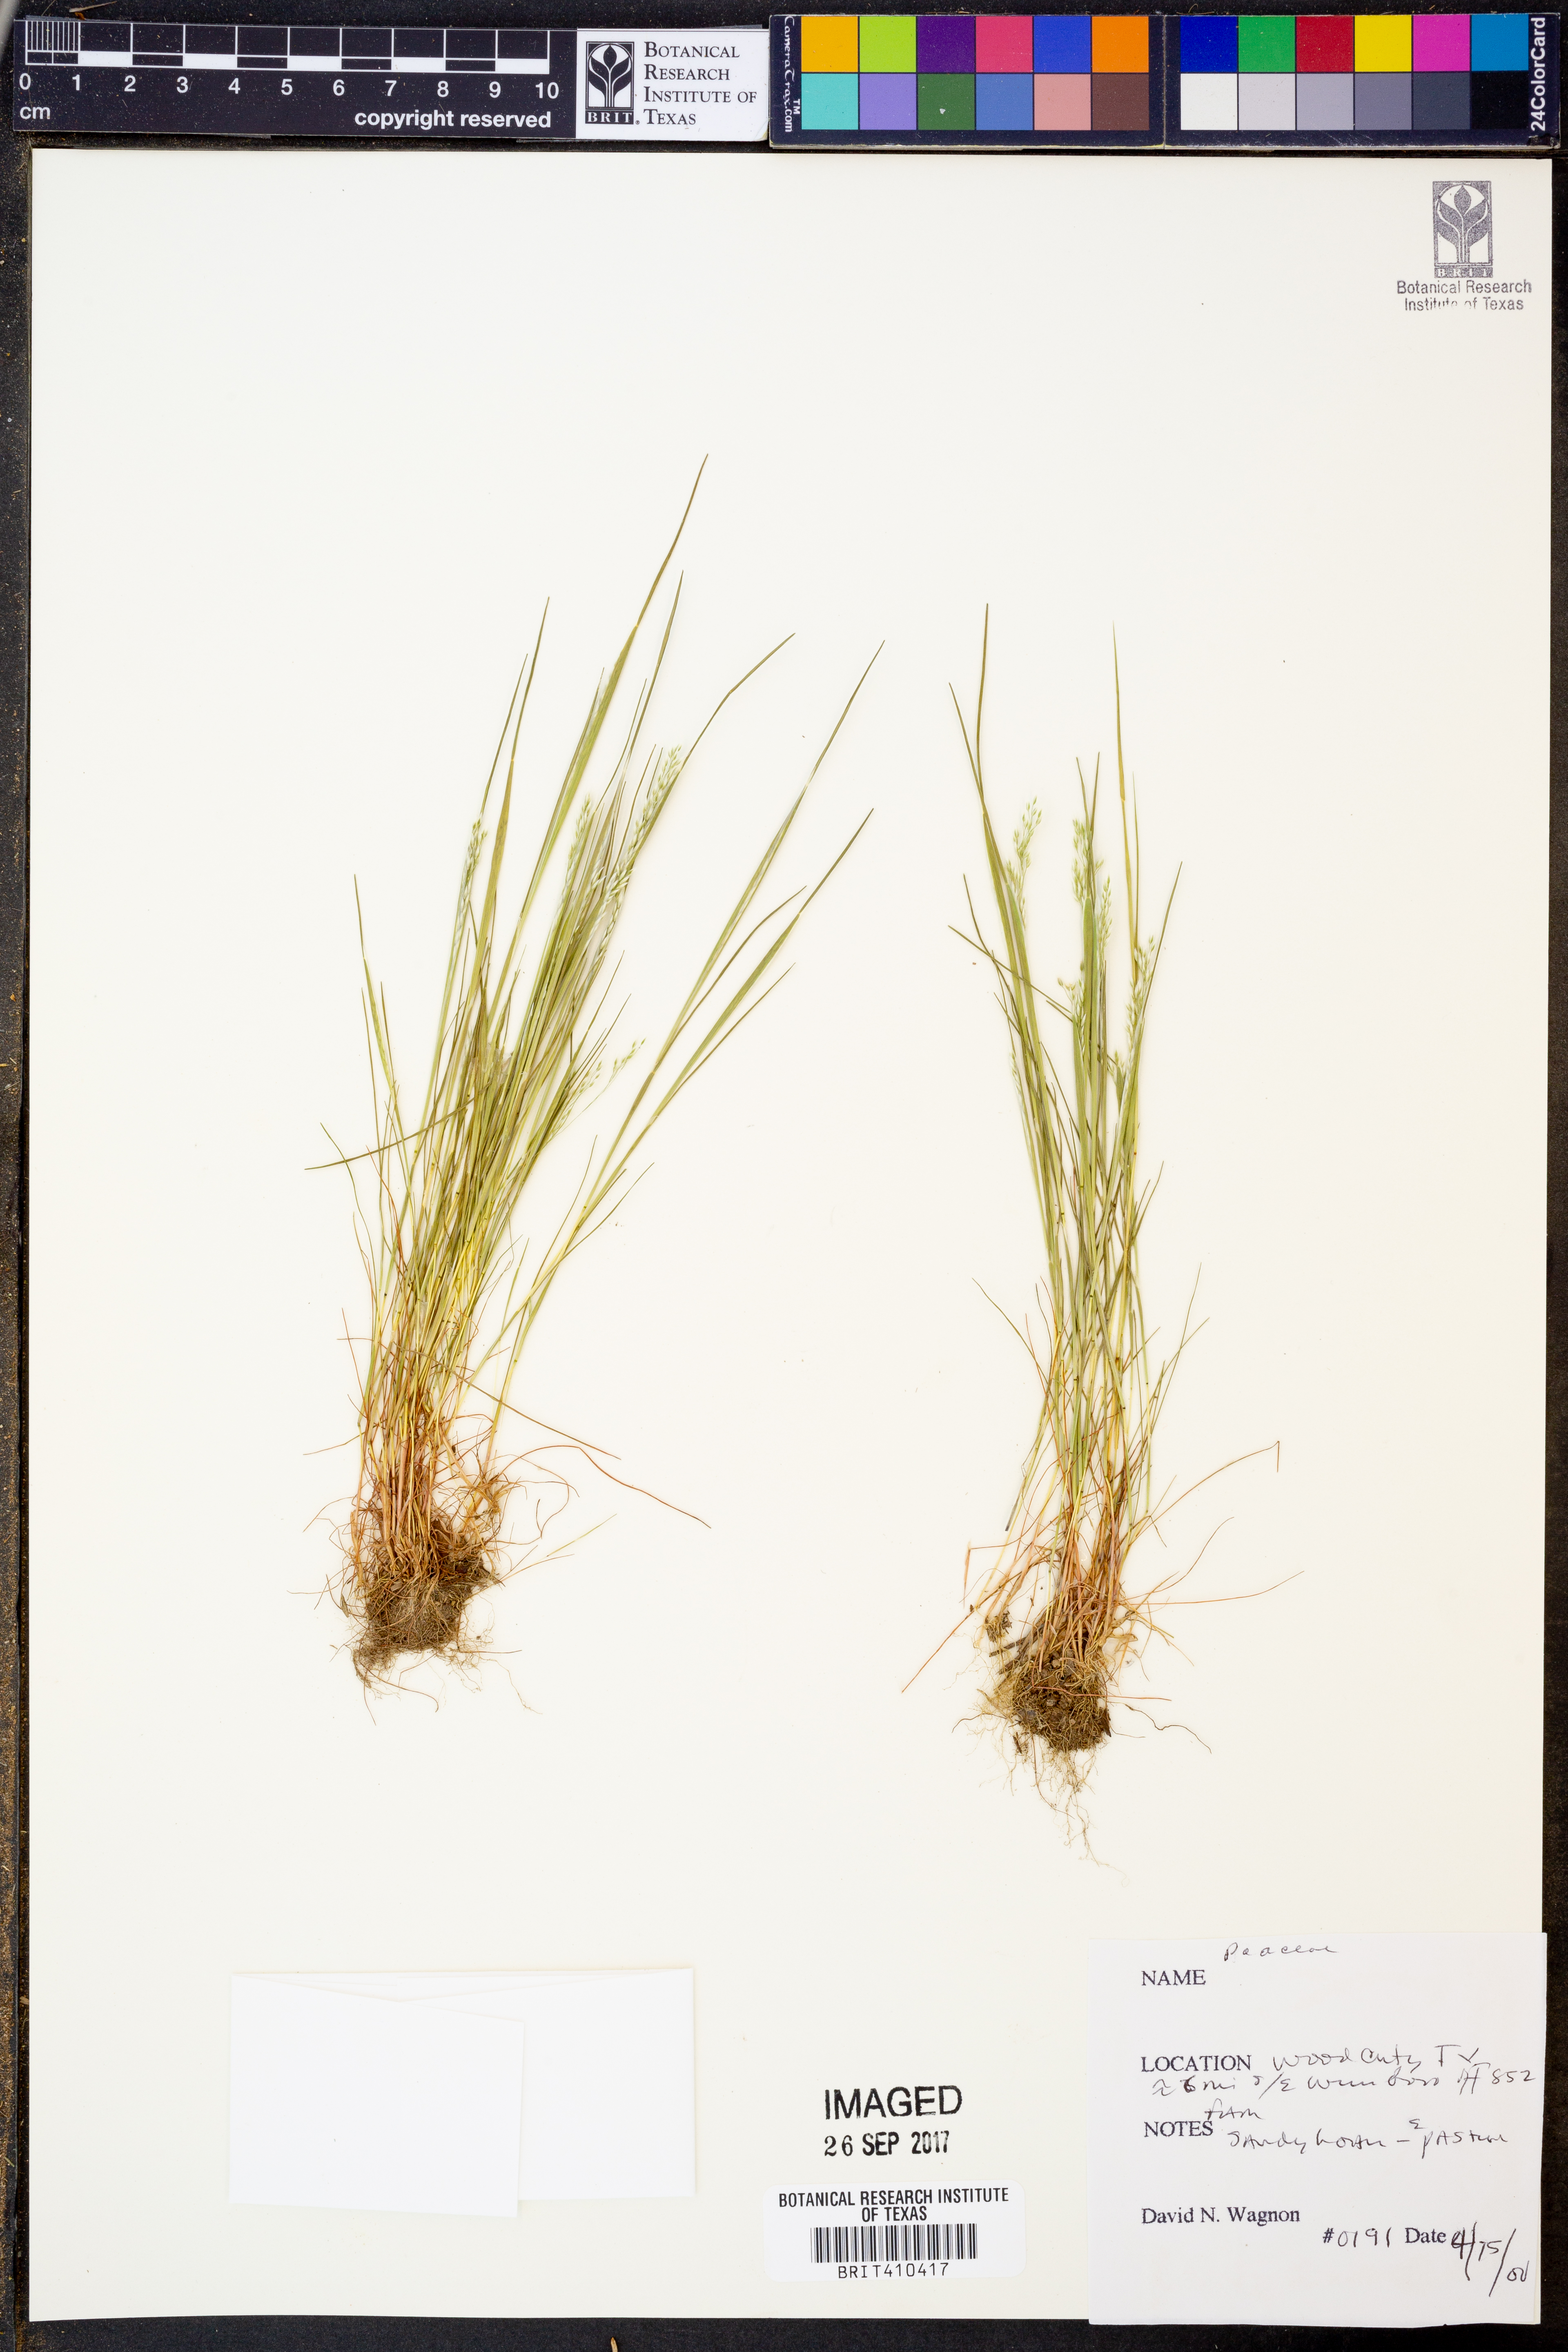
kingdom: Plantae
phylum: Tracheophyta
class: Liliopsida
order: Poales
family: Poaceae
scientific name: Poaceae
